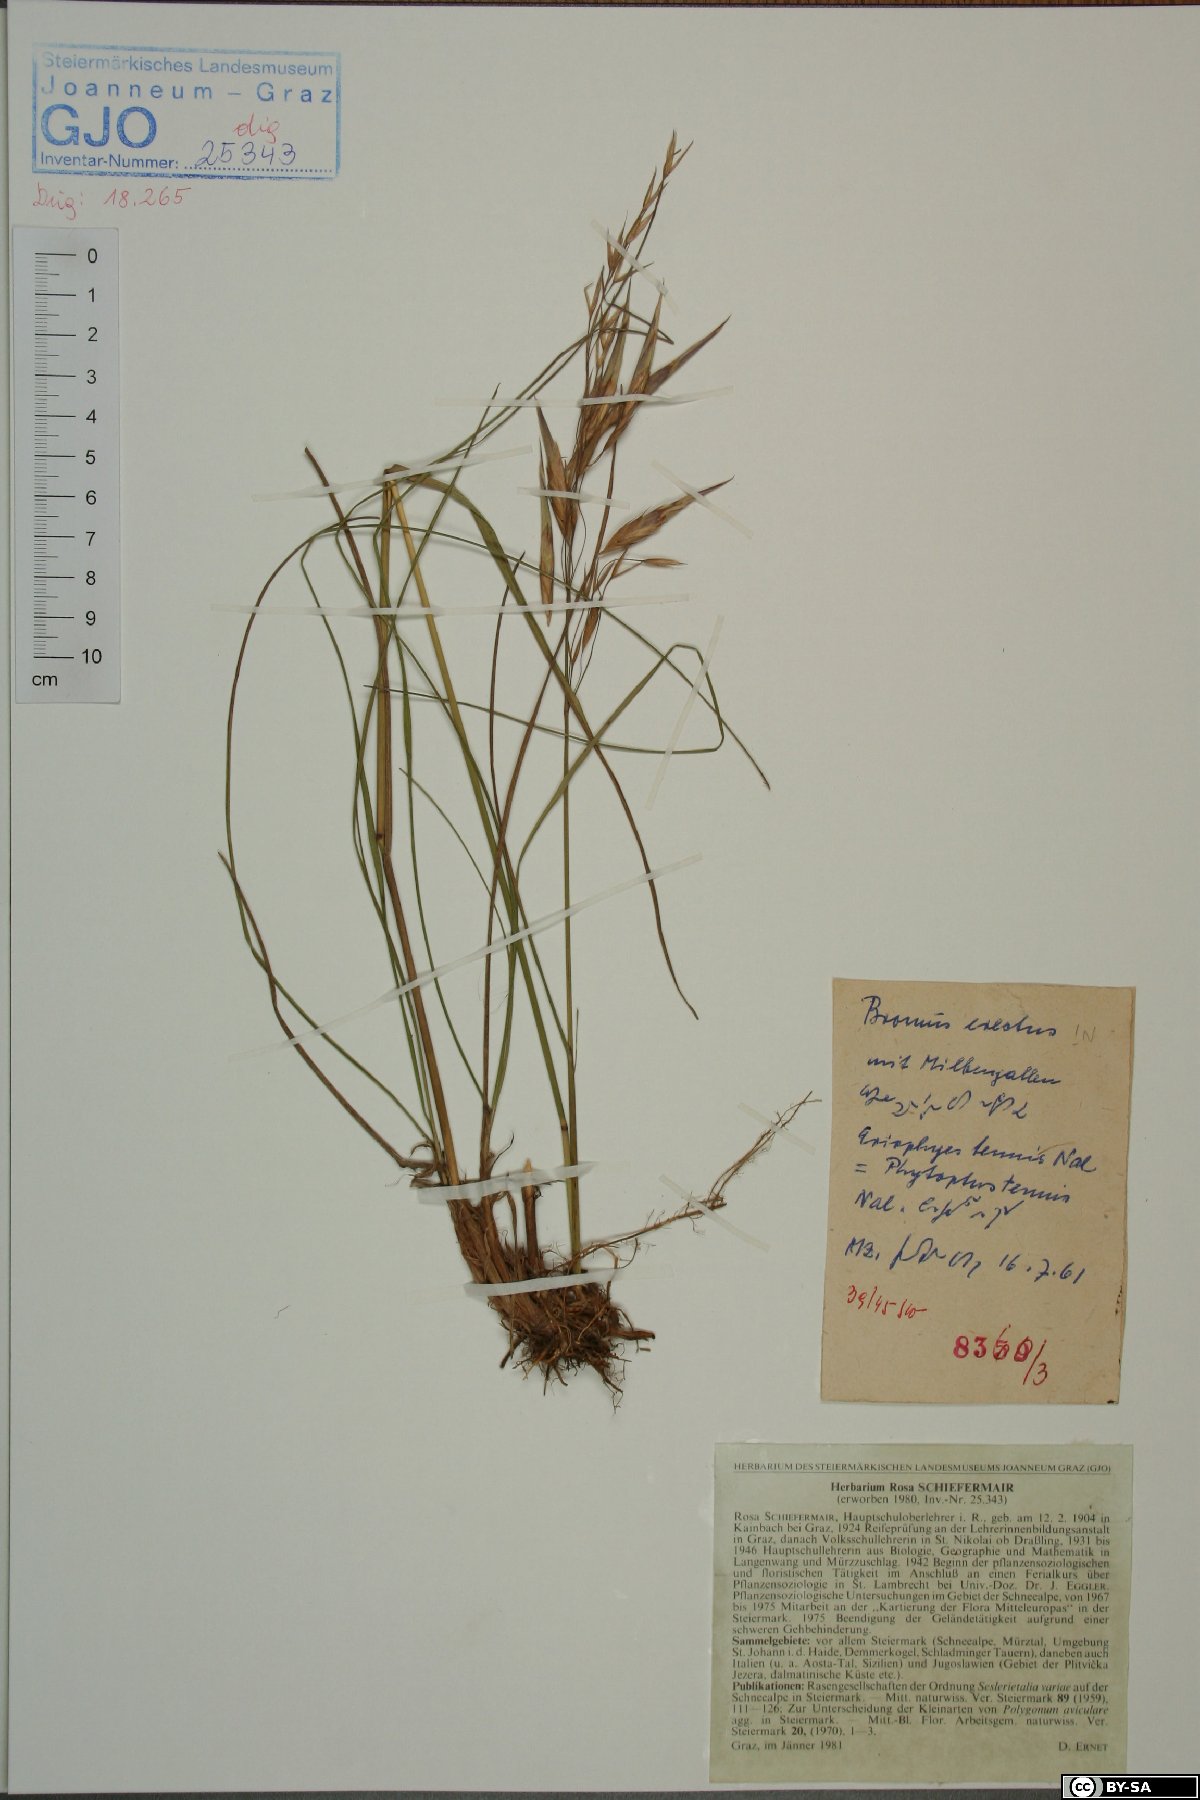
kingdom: Plantae
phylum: Tracheophyta
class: Liliopsida
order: Poales
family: Poaceae
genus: Bromus
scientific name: Bromus erectus
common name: Erect brome
